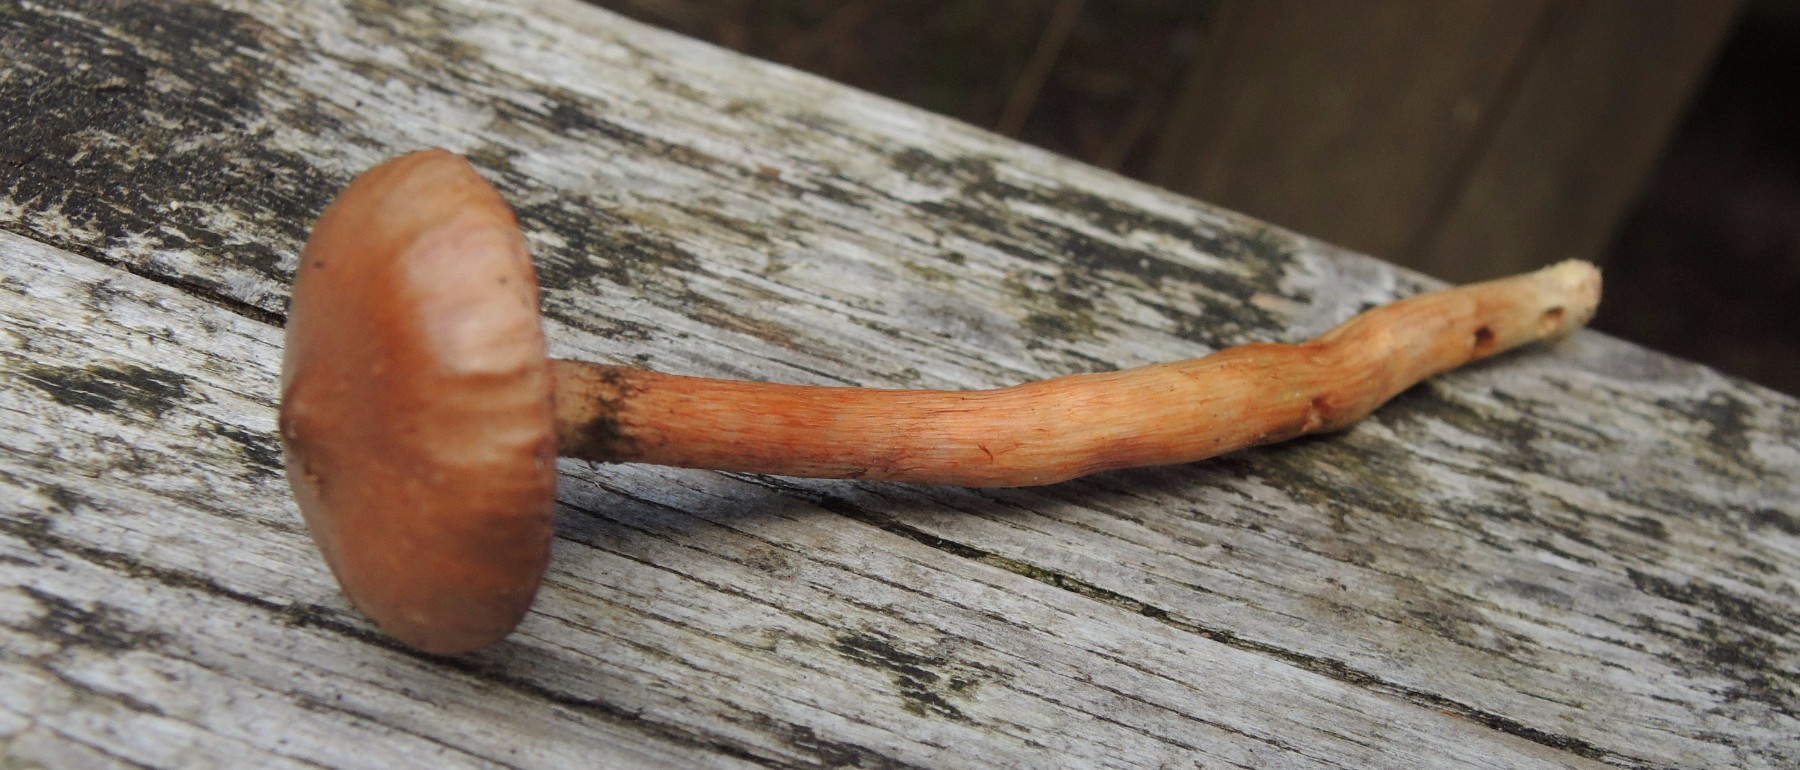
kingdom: Fungi
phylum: Basidiomycota
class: Agaricomycetes
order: Boletales
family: Gomphidiaceae
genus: Chroogomphus
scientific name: Chroogomphus rutilus
